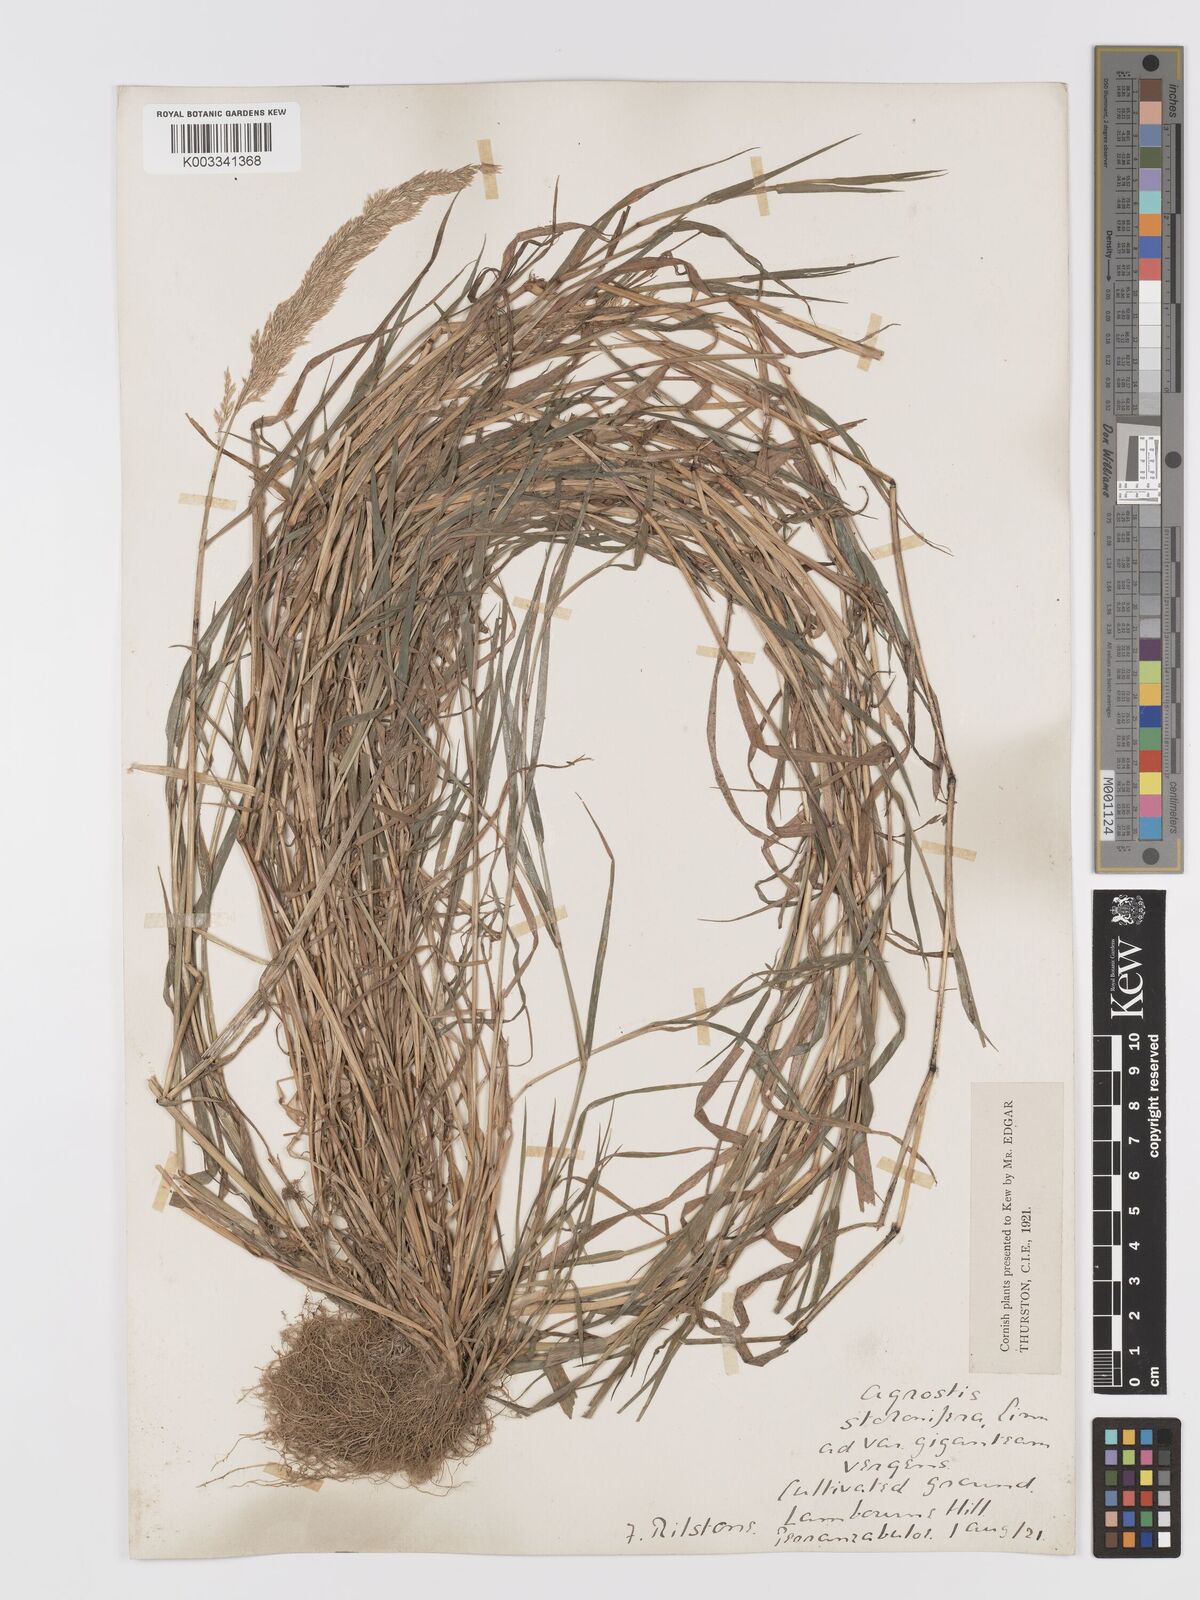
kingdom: Plantae
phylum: Tracheophyta
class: Liliopsida
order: Poales
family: Poaceae
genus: Agrostis
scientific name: Agrostis stolonifera
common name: Creeping bentgrass
